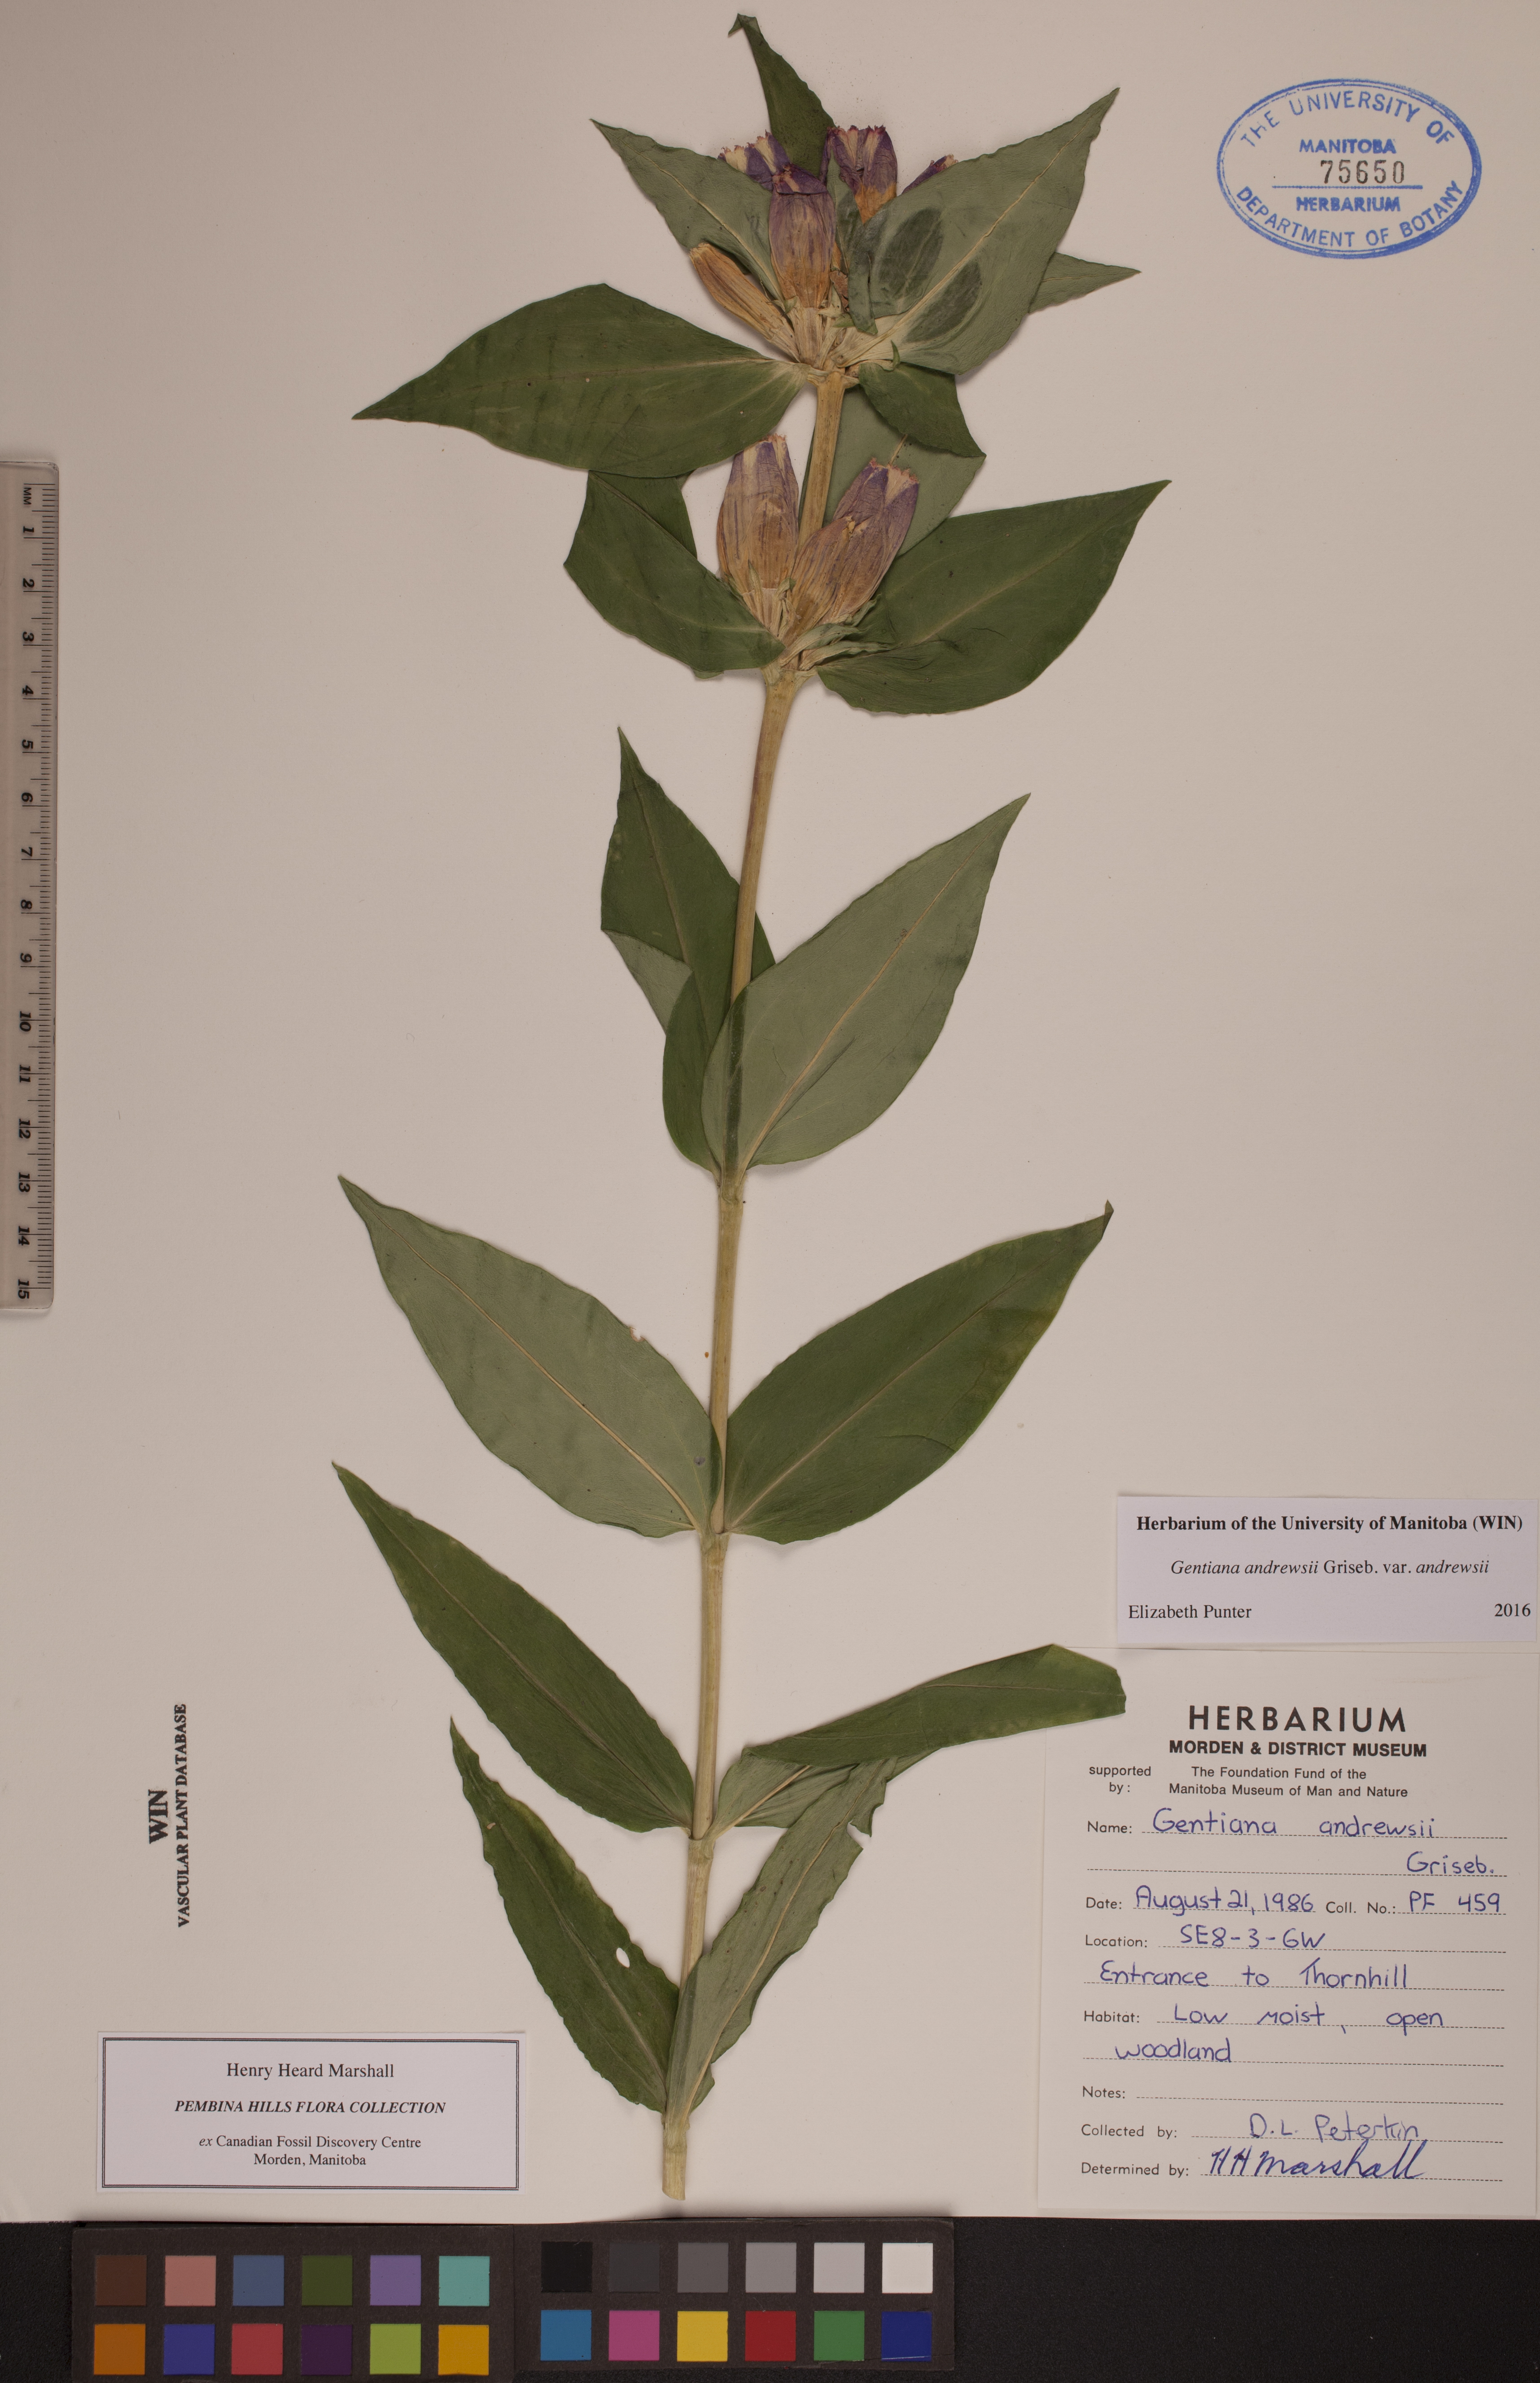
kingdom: Plantae
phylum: Tracheophyta
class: Magnoliopsida
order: Gentianales
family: Gentianaceae
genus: Gentiana
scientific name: Gentiana andrewsii
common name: Bottle gentian
